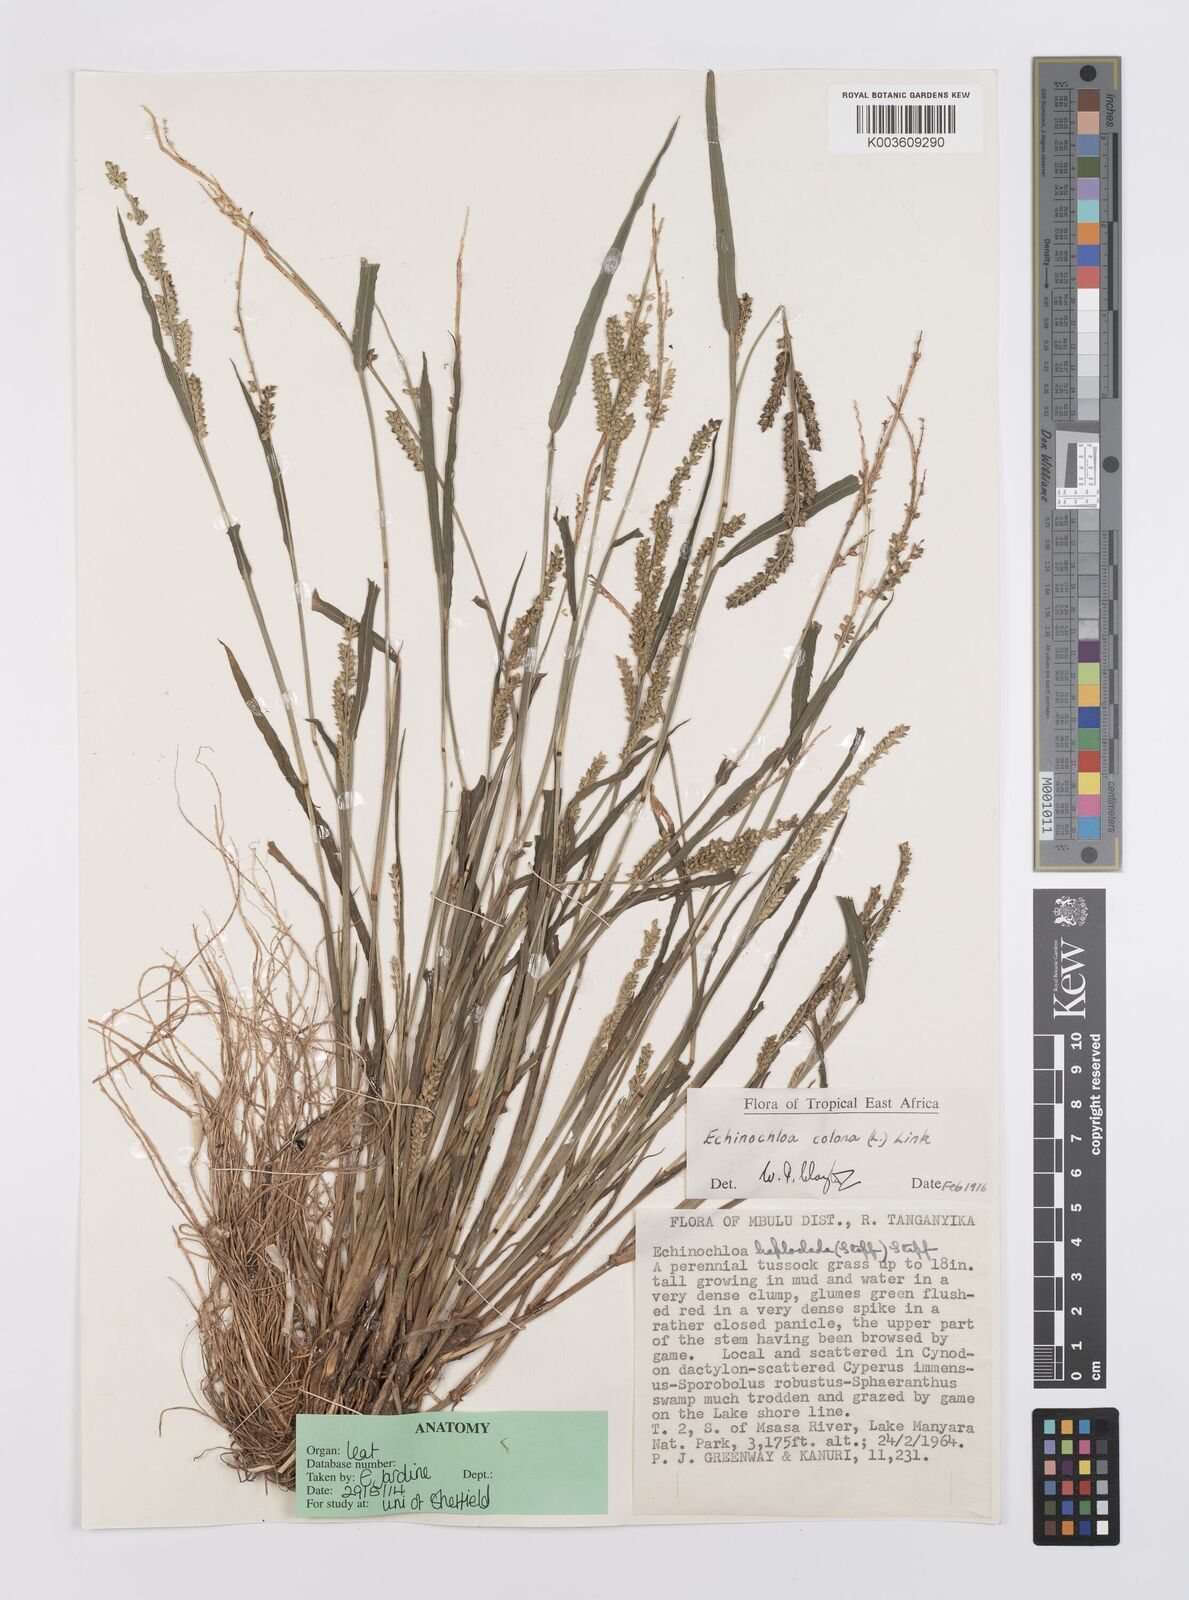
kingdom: Plantae
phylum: Tracheophyta
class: Liliopsida
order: Poales
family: Poaceae
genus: Echinochloa
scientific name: Echinochloa colonum
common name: Jungle rice
